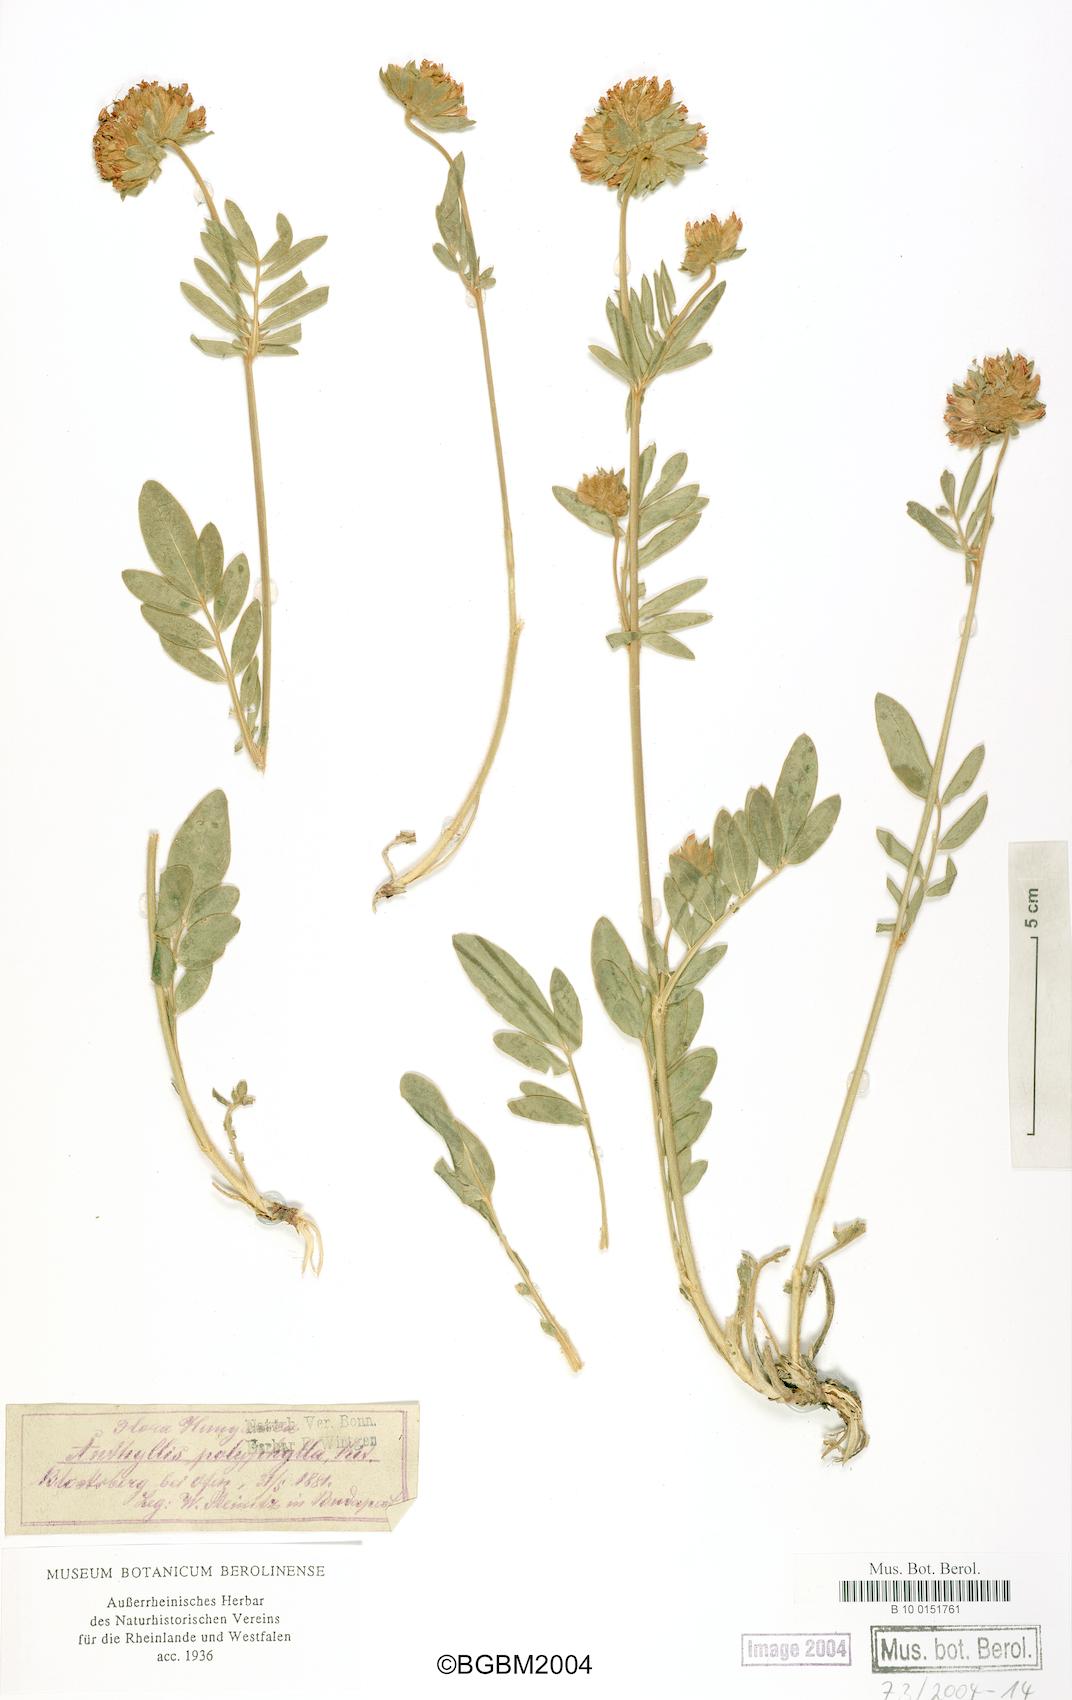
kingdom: Plantae
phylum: Tracheophyta
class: Magnoliopsida
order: Fabales
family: Fabaceae
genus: Anthyllis
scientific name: Anthyllis vulneraria
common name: Kidney vetch
